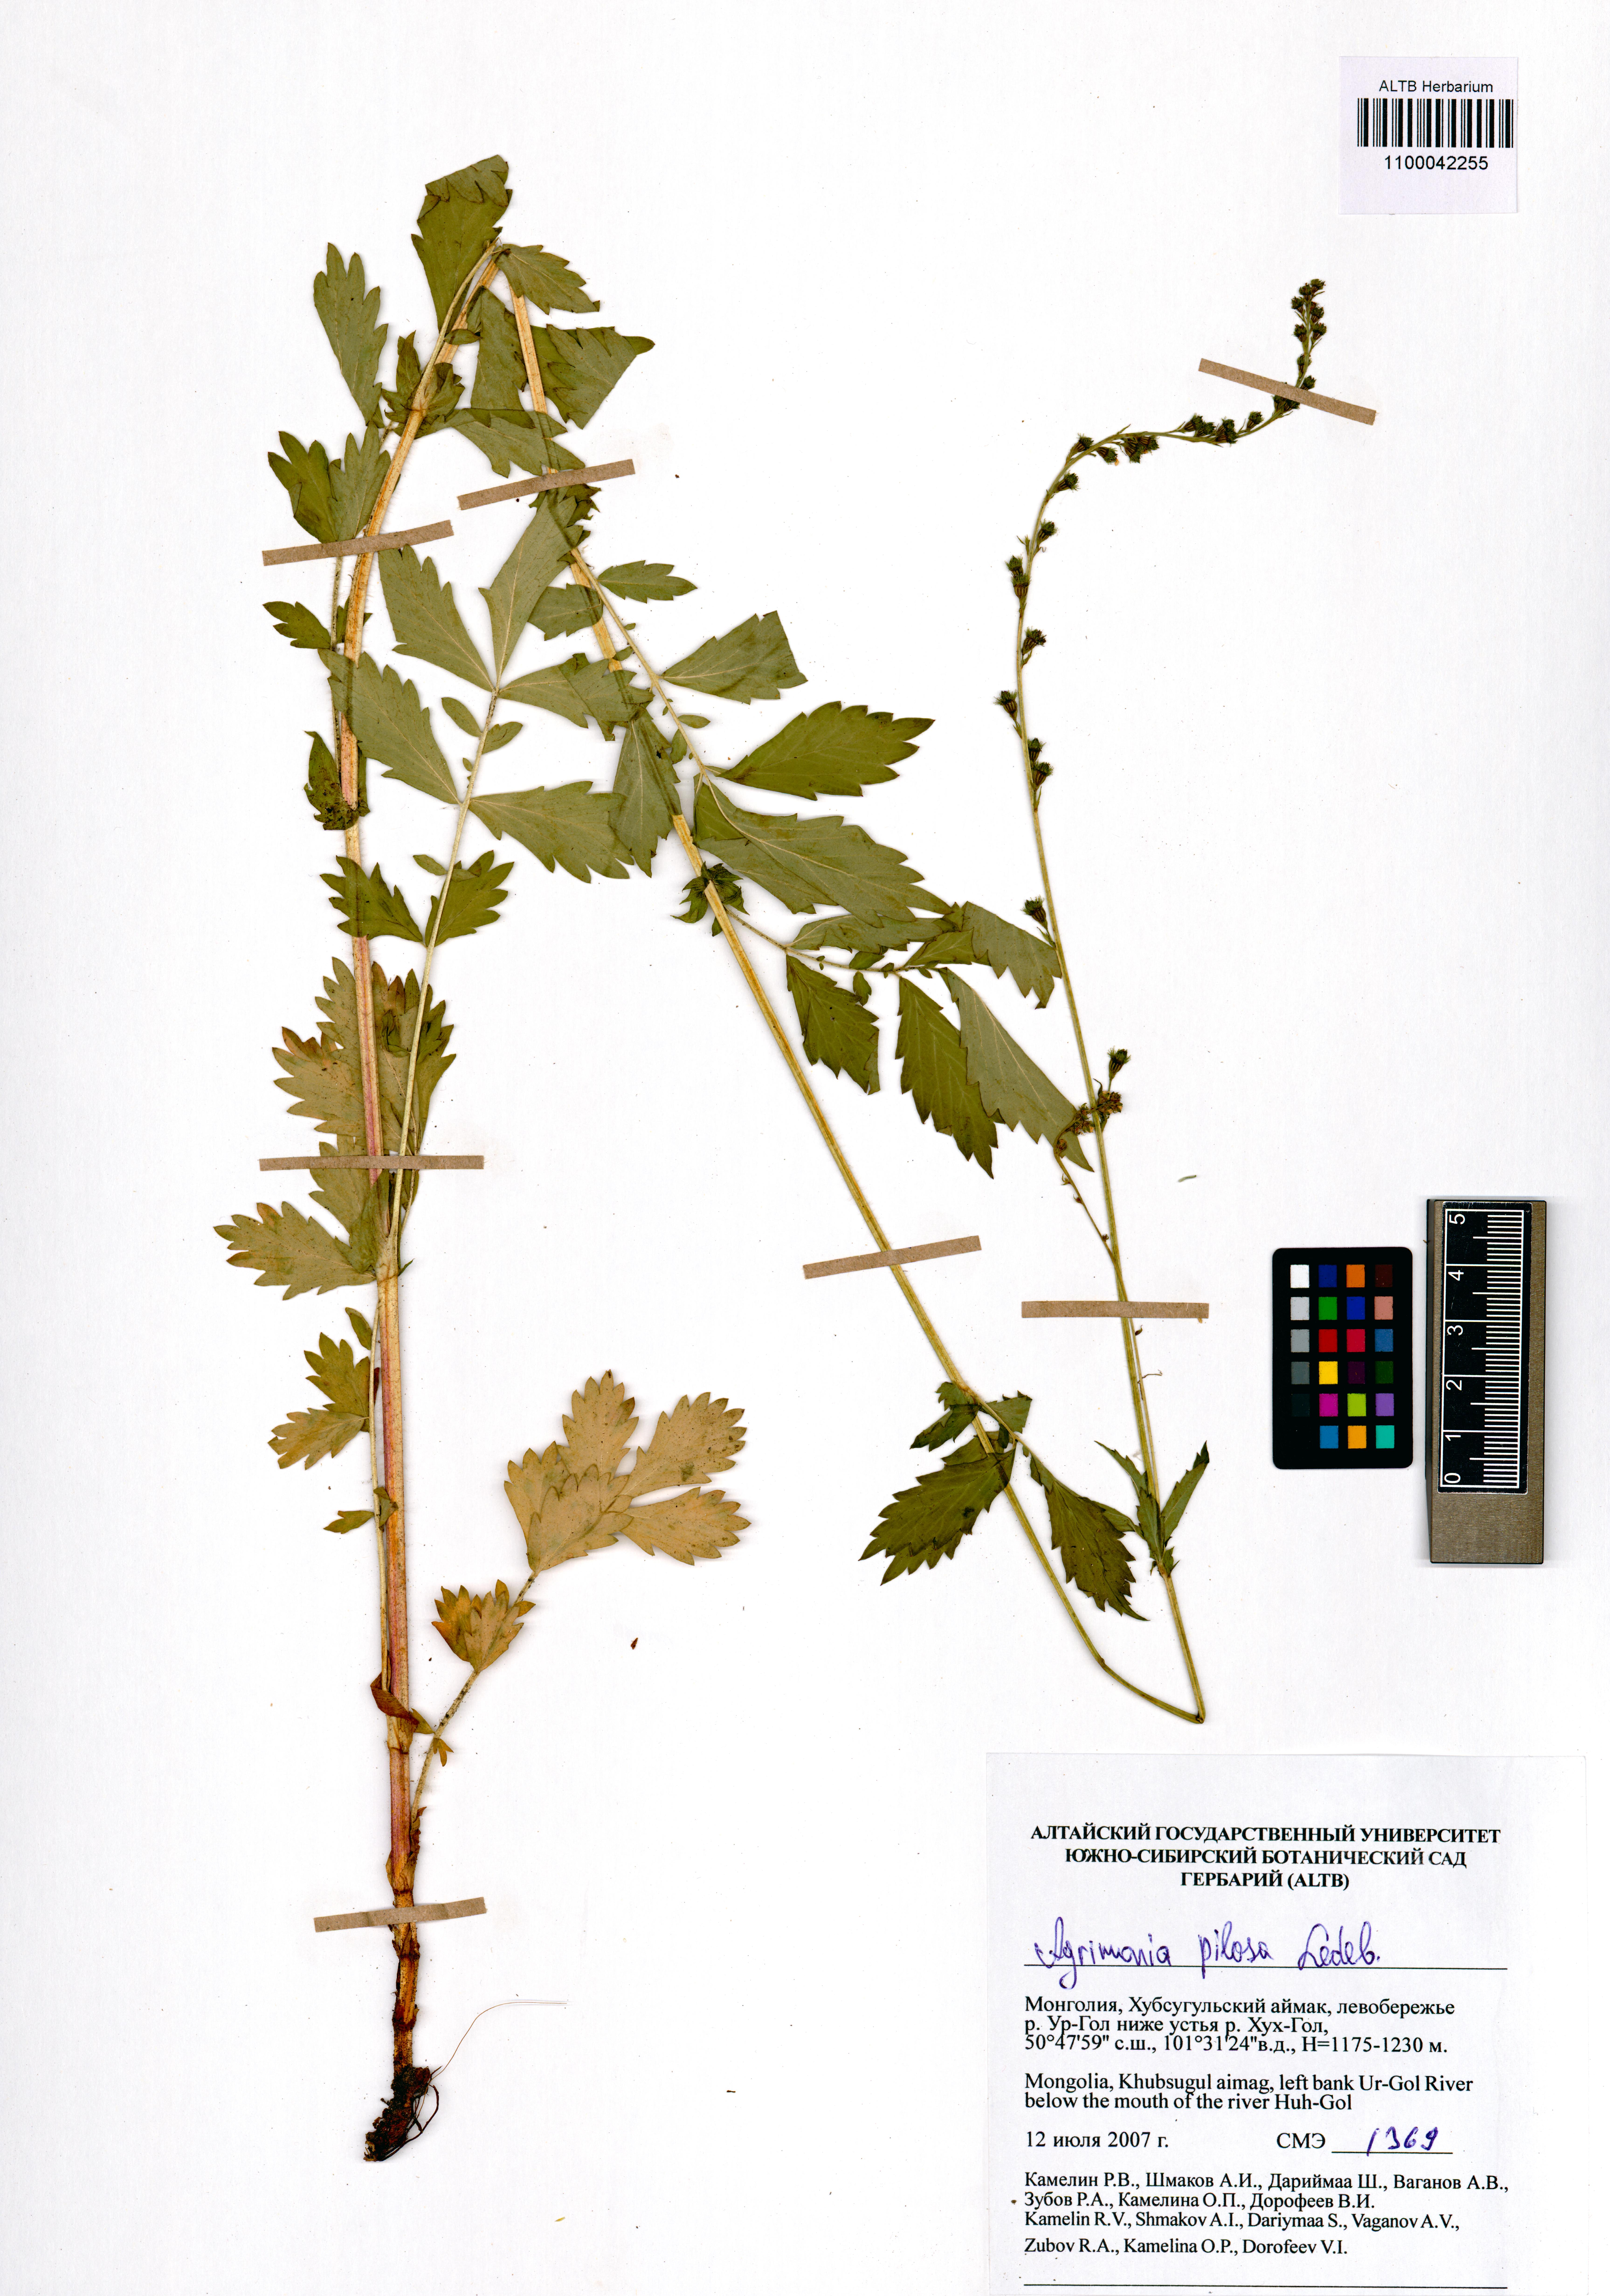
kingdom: Plantae
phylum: Tracheophyta
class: Magnoliopsida
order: Rosales
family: Rosaceae
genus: Agrimonia
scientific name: Agrimonia pilosa
